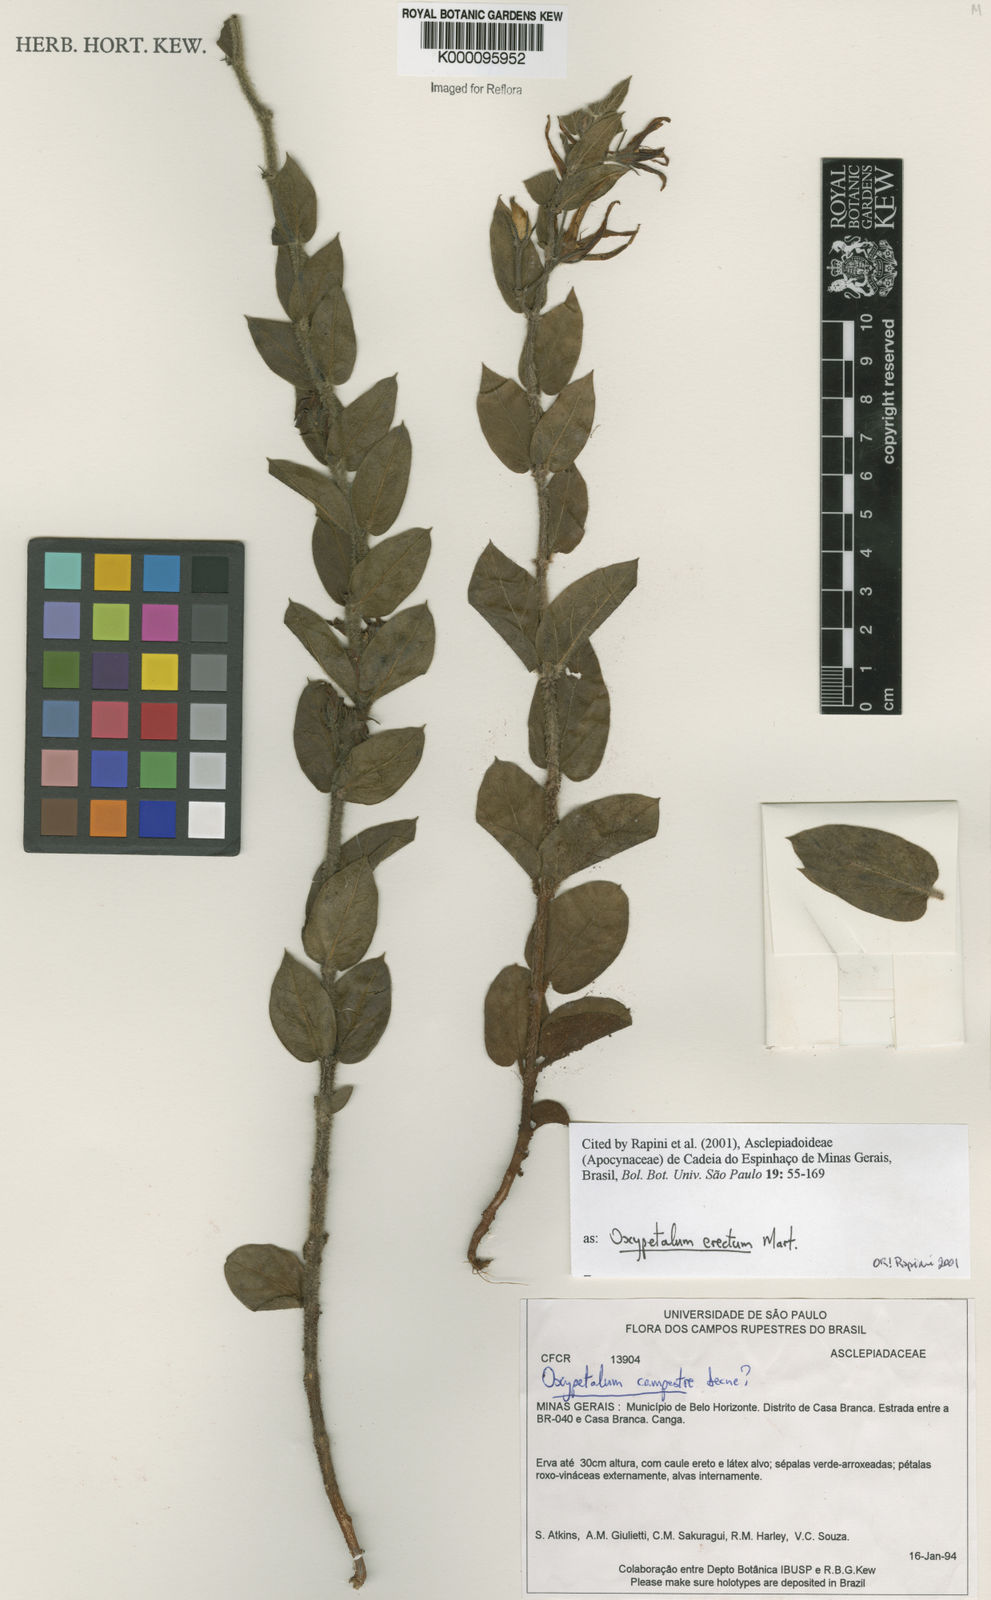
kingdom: Plantae
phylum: Tracheophyta
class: Magnoliopsida
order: Gentianales
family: Apocynaceae
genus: Oxypetalum
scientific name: Oxypetalum erectum
